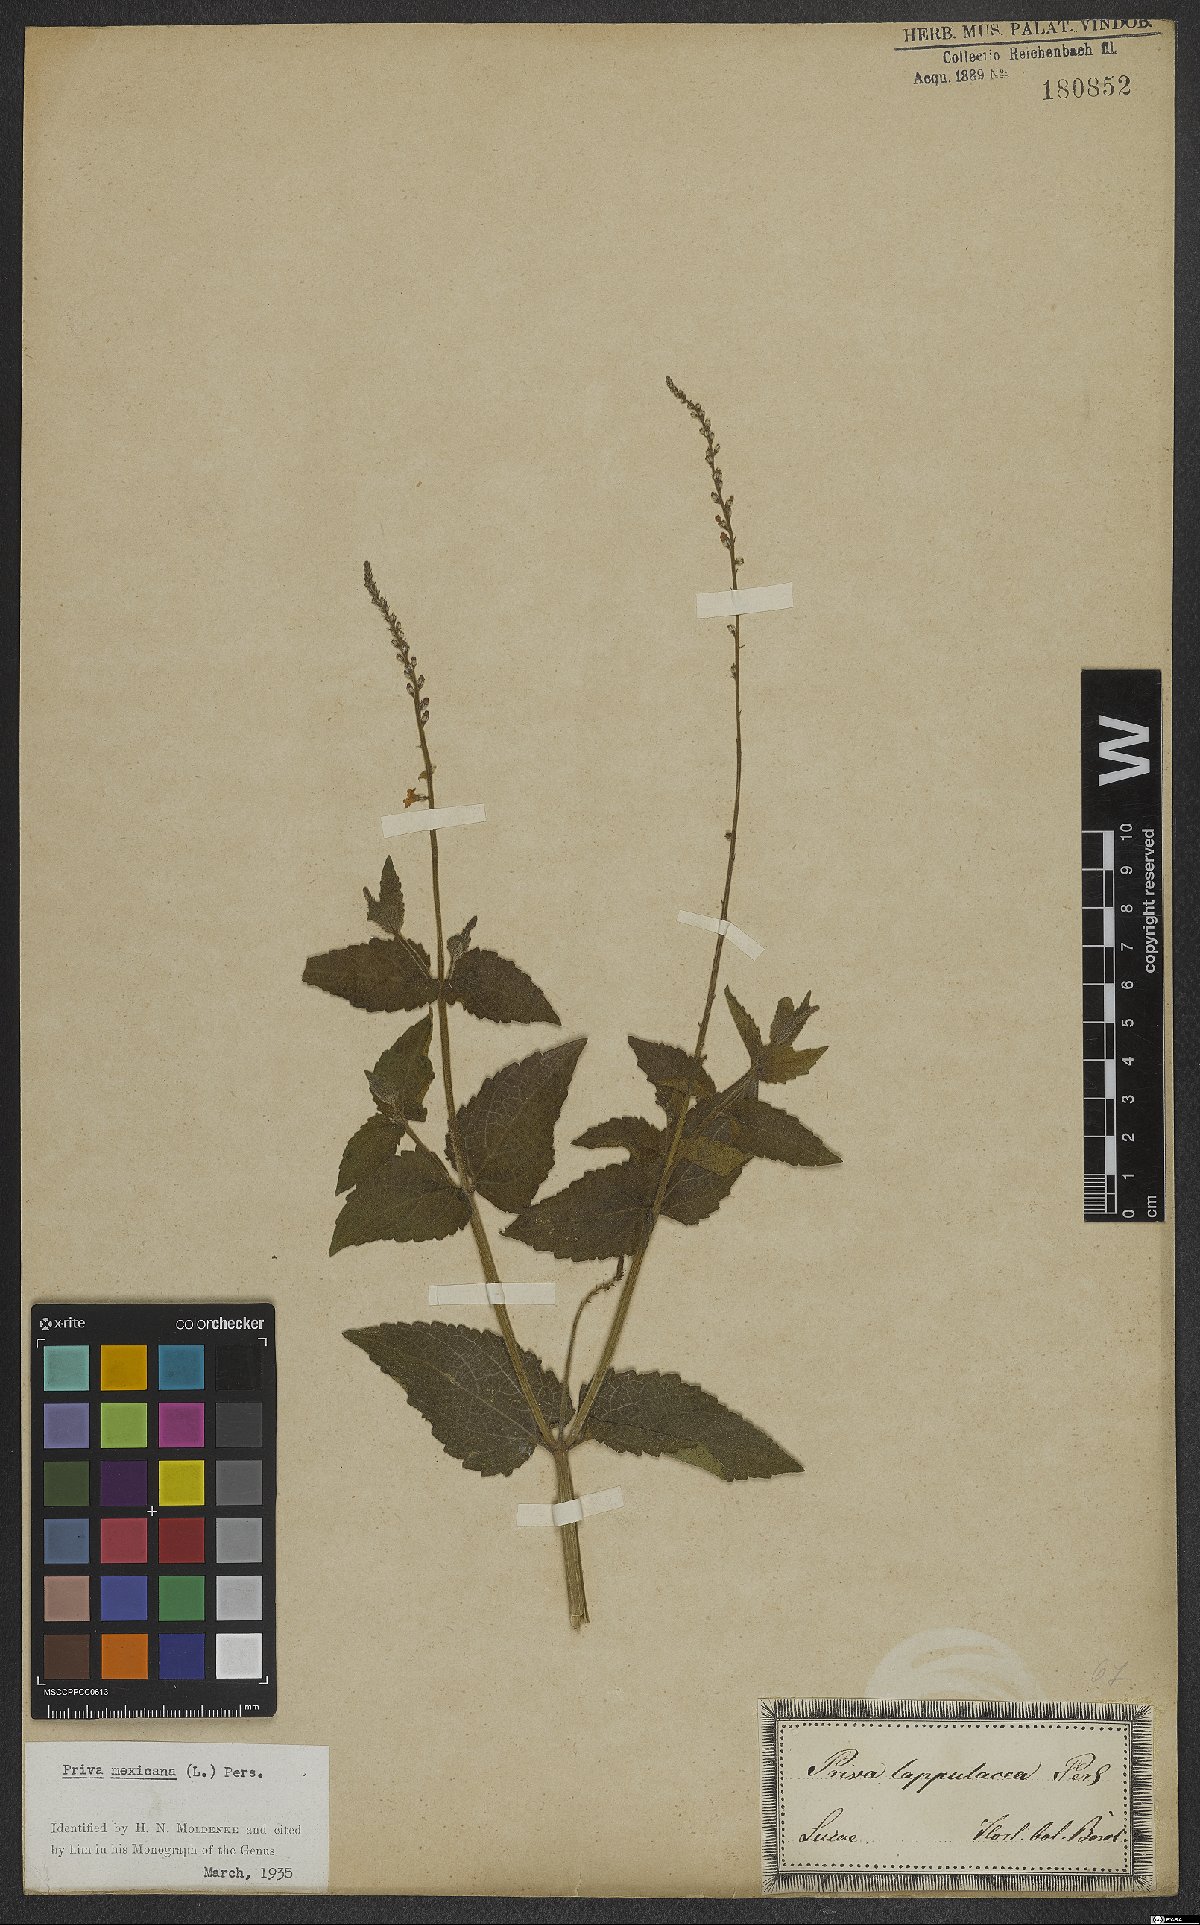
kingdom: Plantae
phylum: Tracheophyta
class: Magnoliopsida
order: Lamiales
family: Verbenaceae
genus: Priva
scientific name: Priva mexicana
